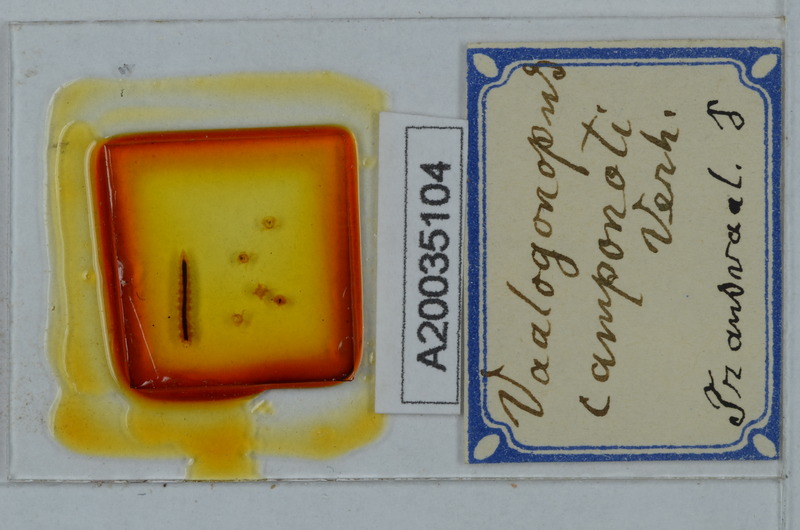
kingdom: Animalia
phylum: Arthropoda
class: Diplopoda
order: Polydesmida
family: Vaalogonopodidae
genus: Vaalogonopus
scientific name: Vaalogonopus camponoti
